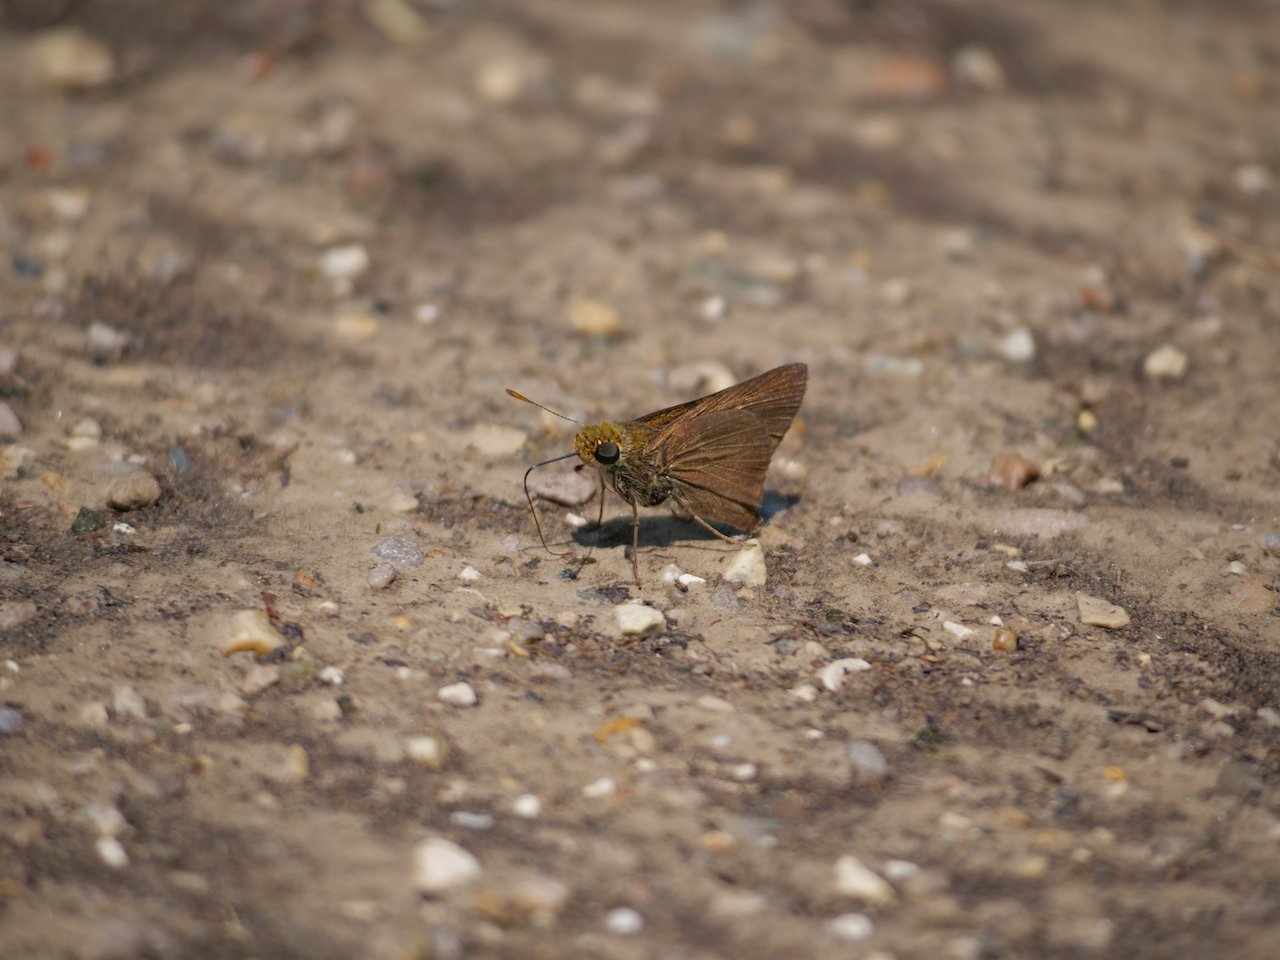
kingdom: Animalia
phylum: Arthropoda
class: Insecta
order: Lepidoptera
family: Hesperiidae
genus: Euphyes
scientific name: Euphyes vestris
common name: Dun Skipper
